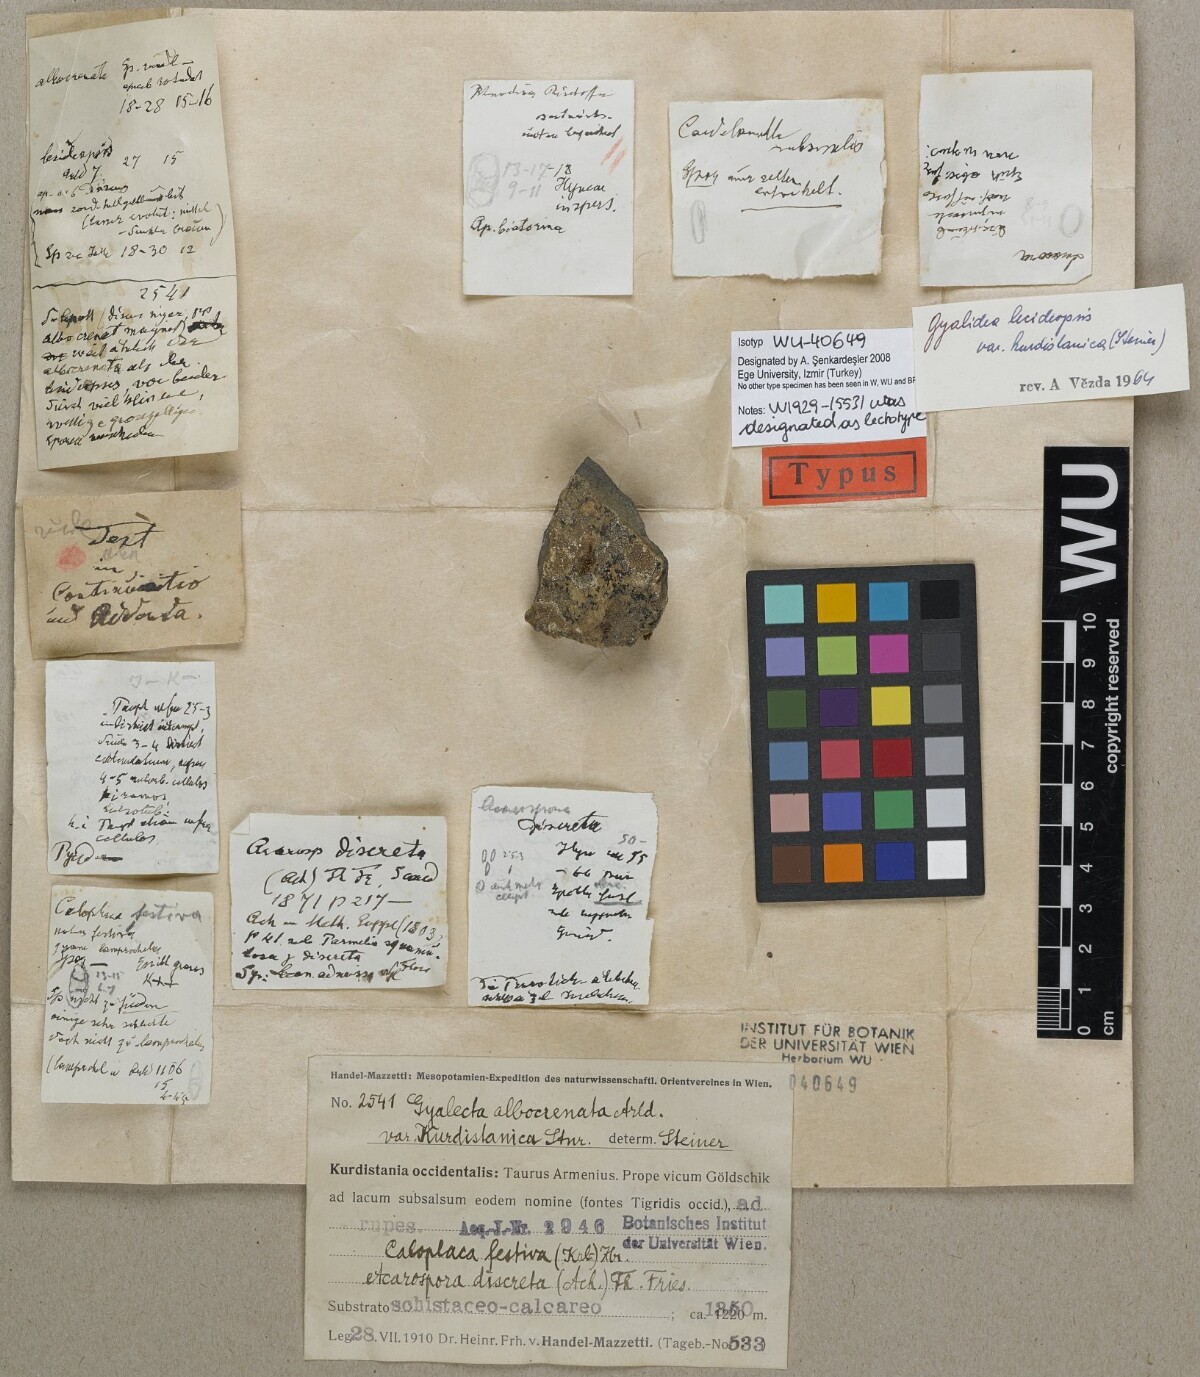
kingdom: Fungi
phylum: Ascomycota
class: Lecanoromycetes
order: Ostropales
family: Graphidaceae
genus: Gyalidea
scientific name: Gyalidea lecideopsis
